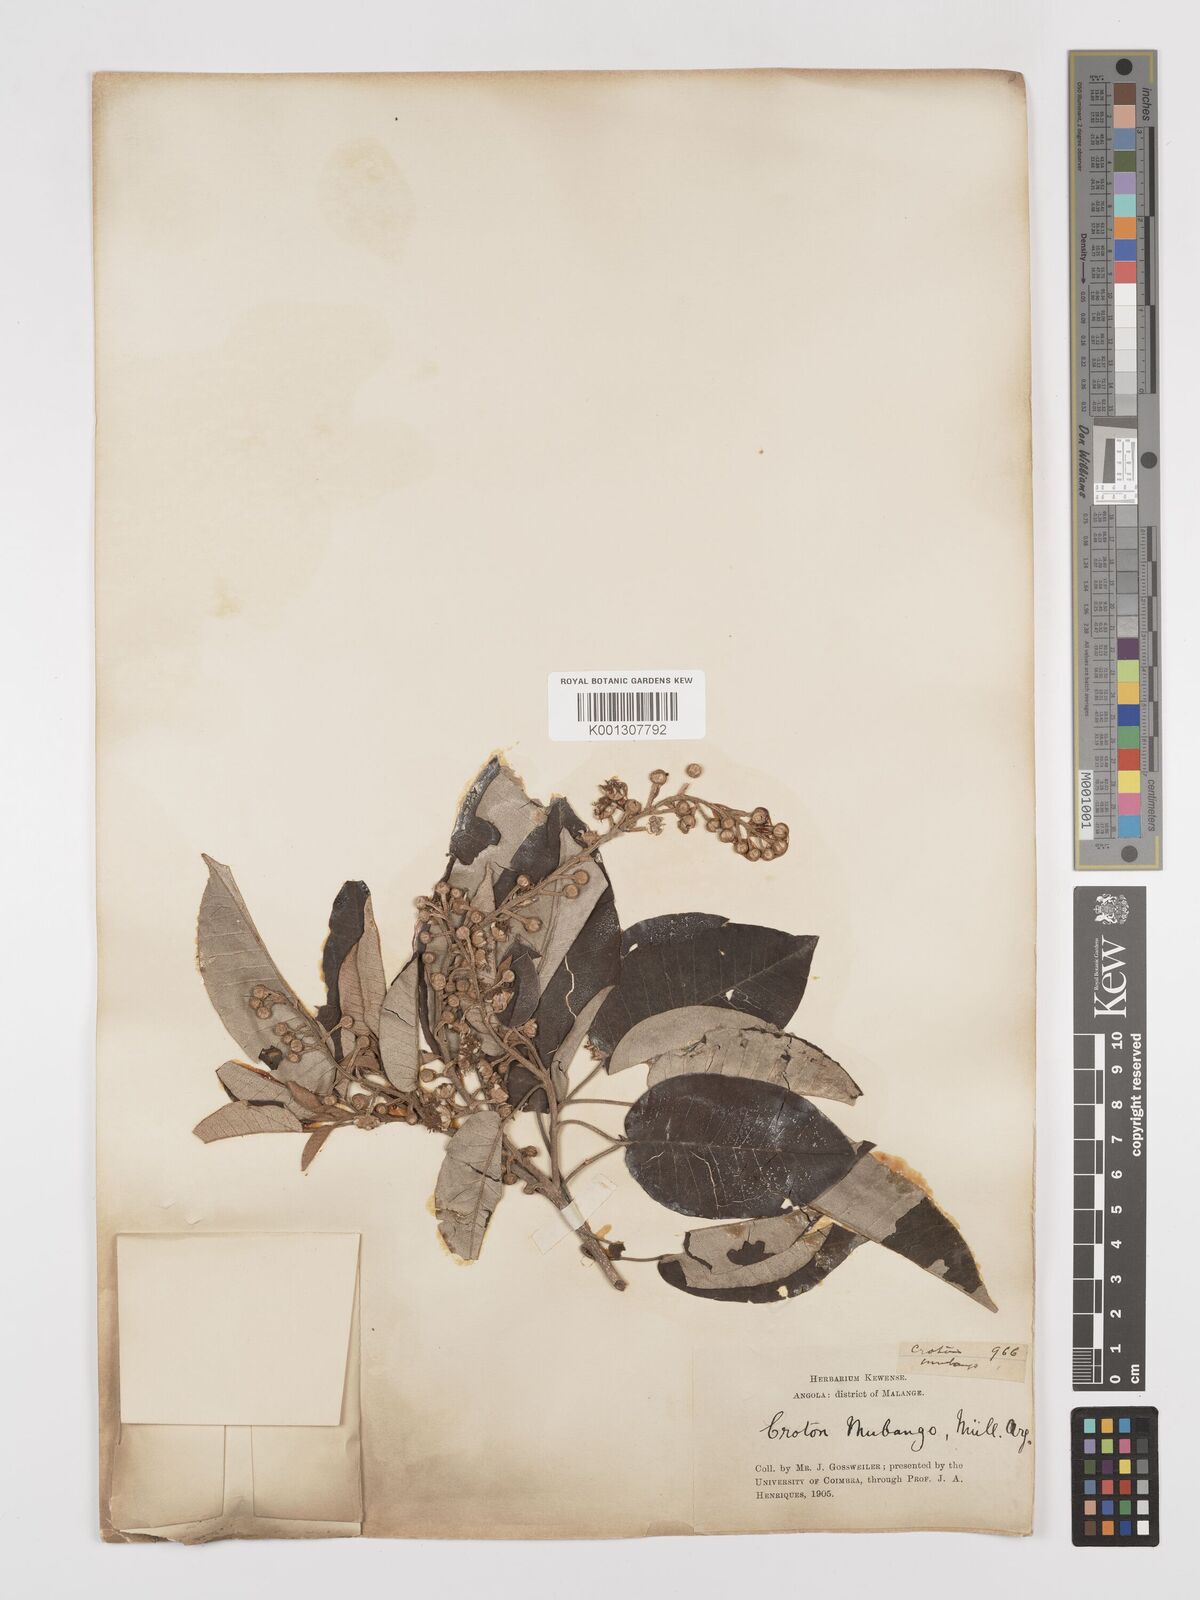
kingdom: Plantae
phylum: Tracheophyta
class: Magnoliopsida
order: Malpighiales
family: Euphorbiaceae
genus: Croton
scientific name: Croton mubango
